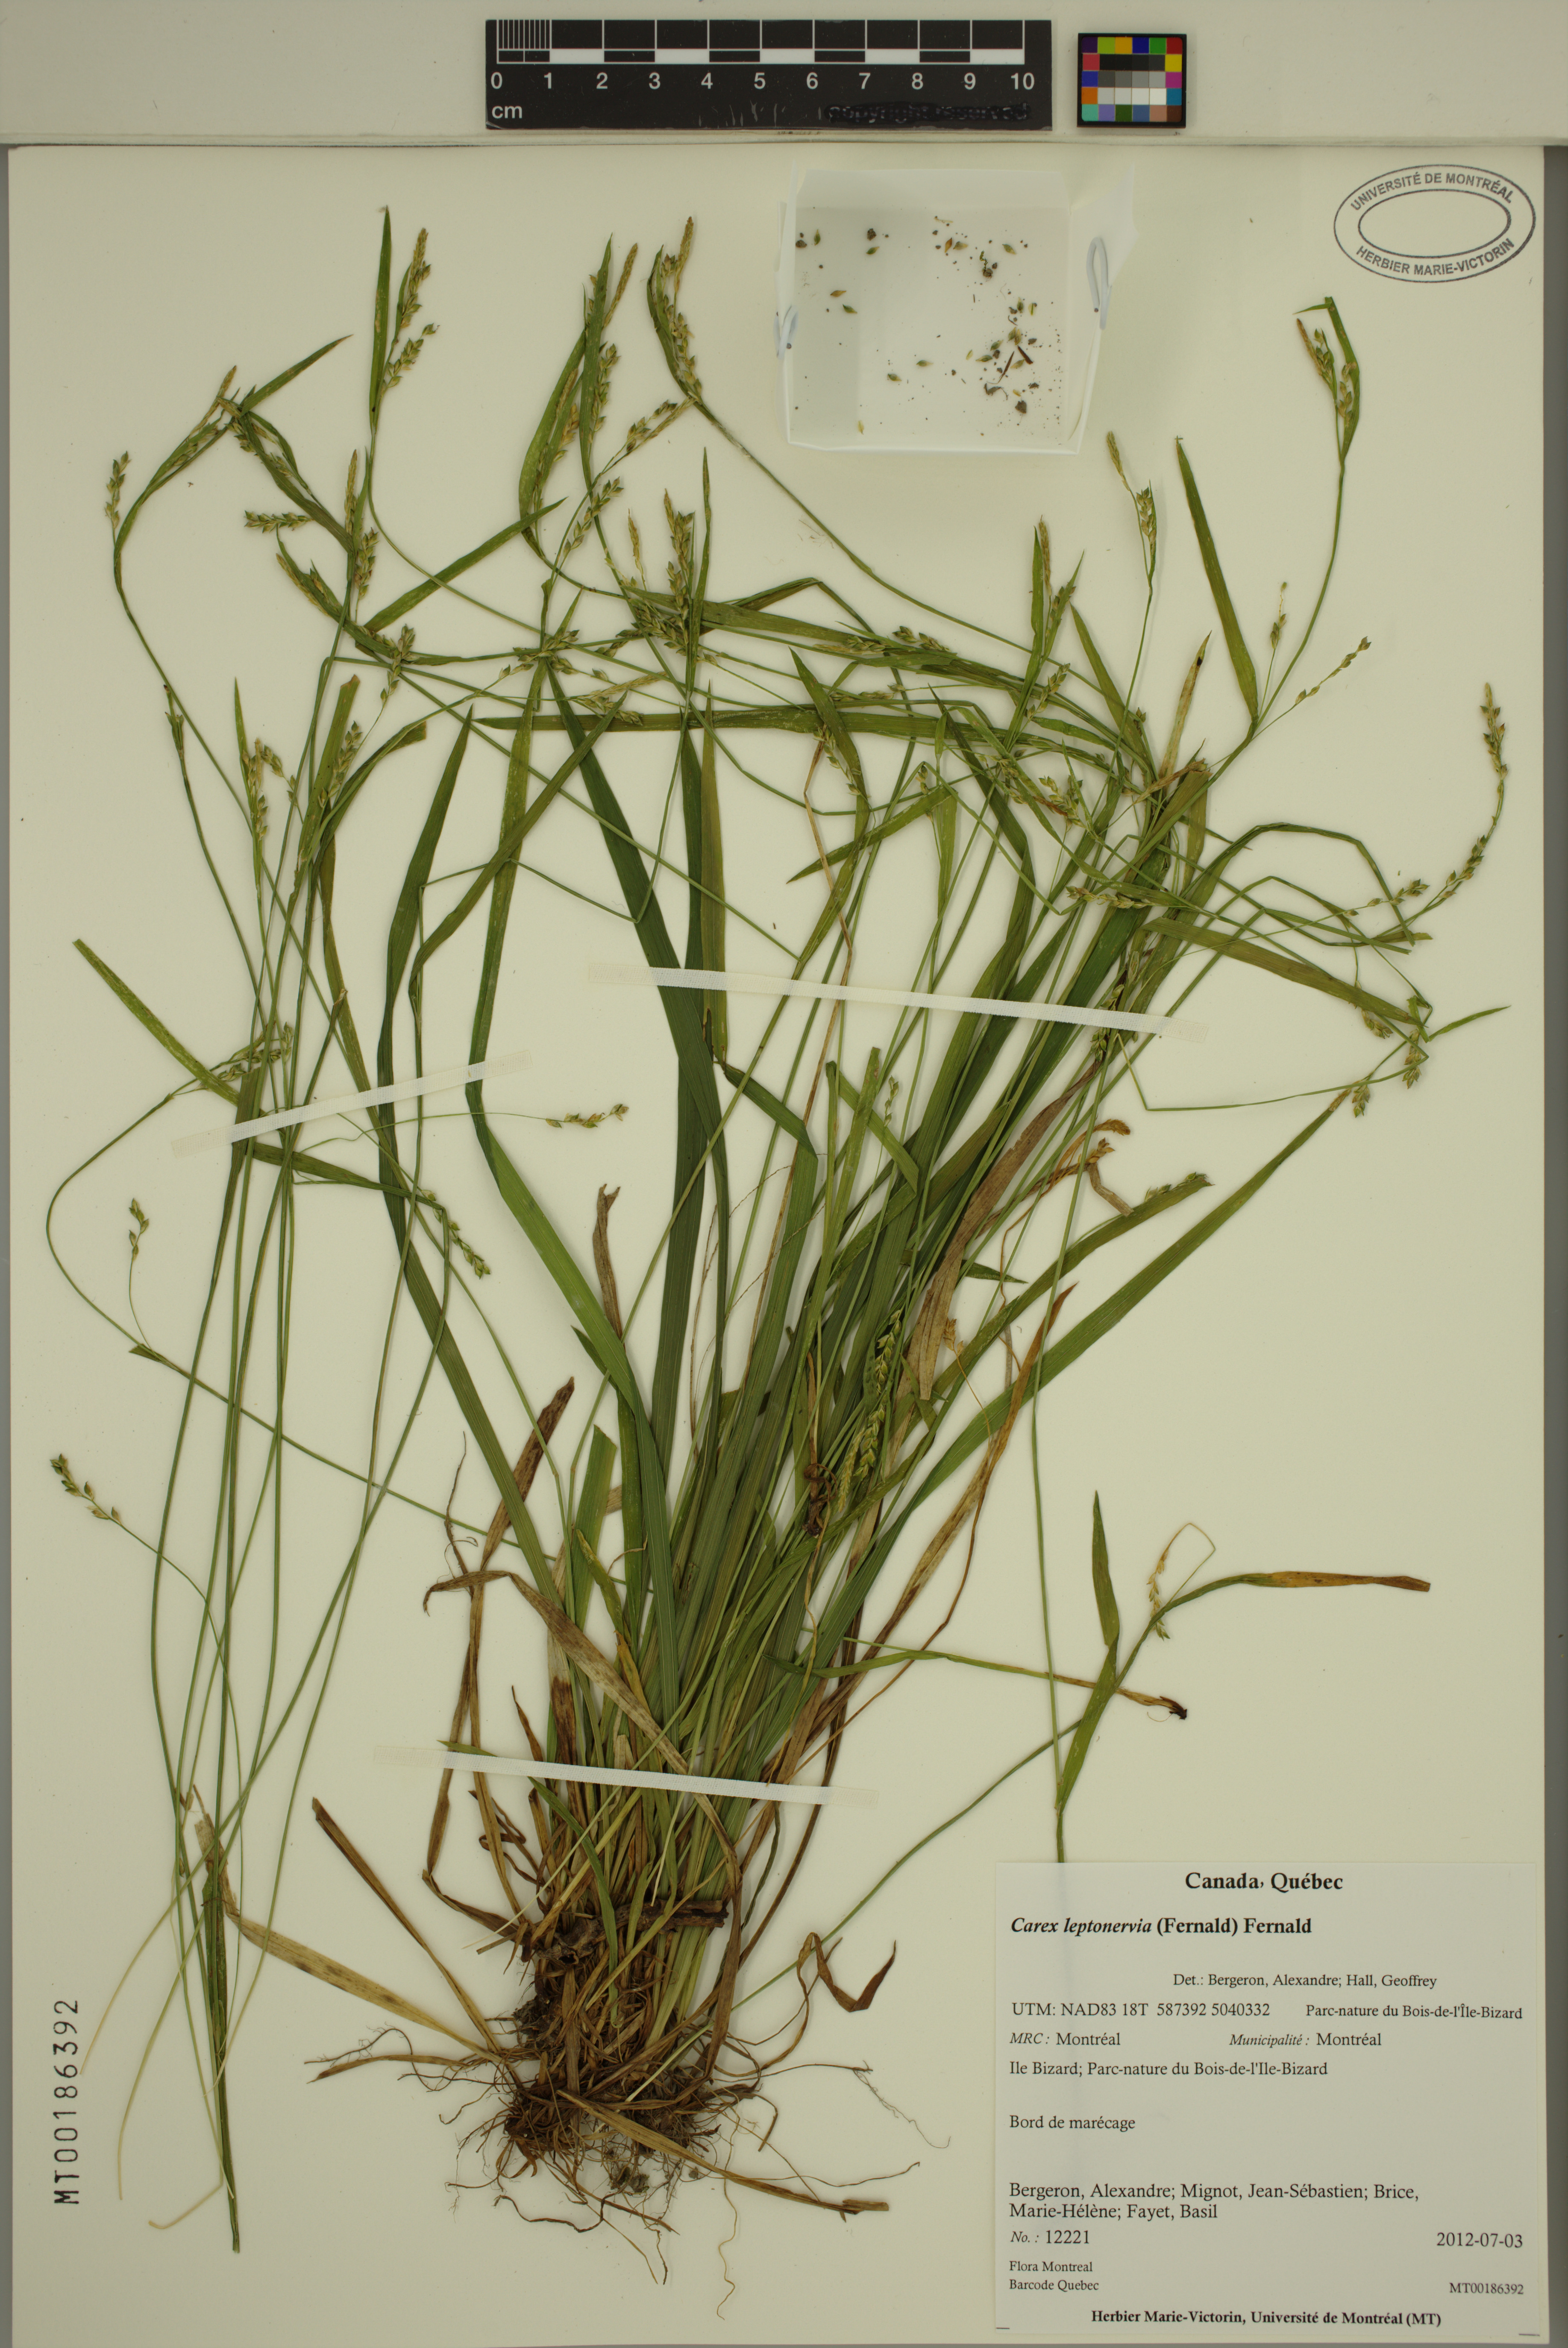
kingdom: Plantae
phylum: Tracheophyta
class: Liliopsida
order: Poales
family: Cyperaceae
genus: Carex
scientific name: Carex leptonervia
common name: Few-nerved wood sedge
